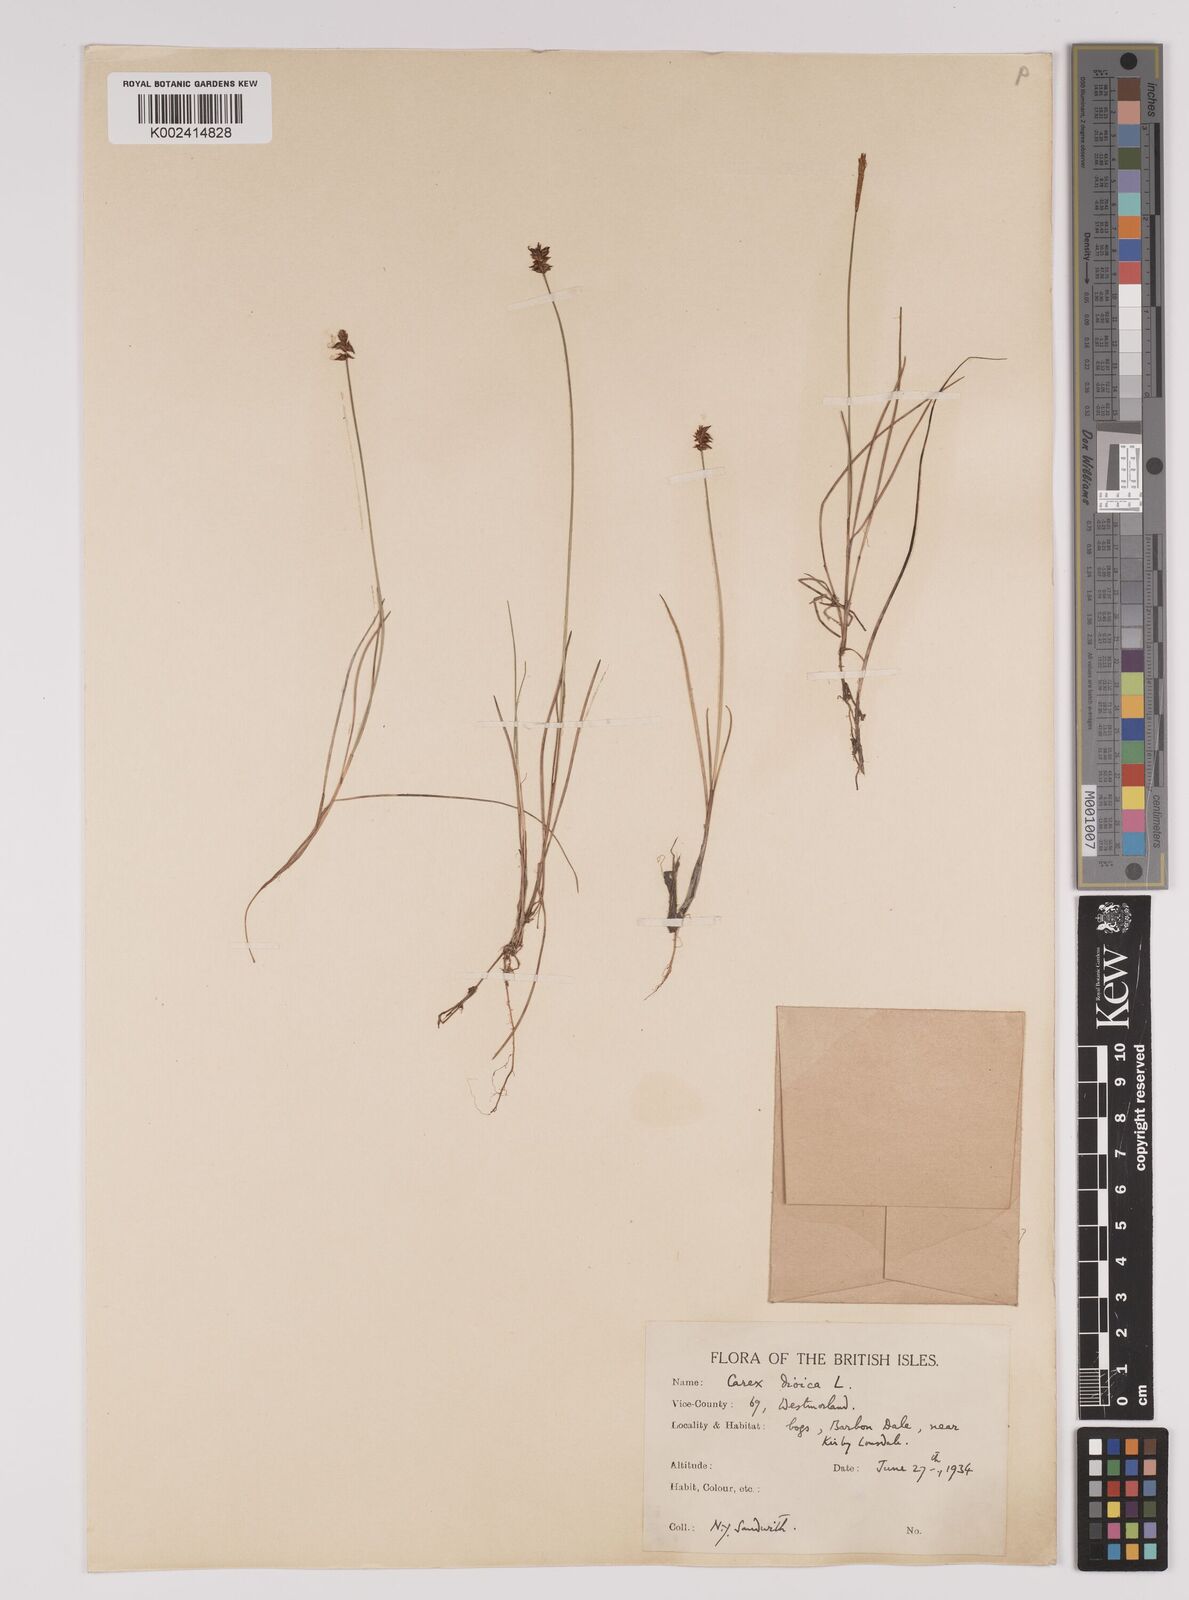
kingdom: Plantae
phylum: Tracheophyta
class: Liliopsida
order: Poales
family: Cyperaceae
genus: Carex
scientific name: Carex dioica
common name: Dioecious sedge
